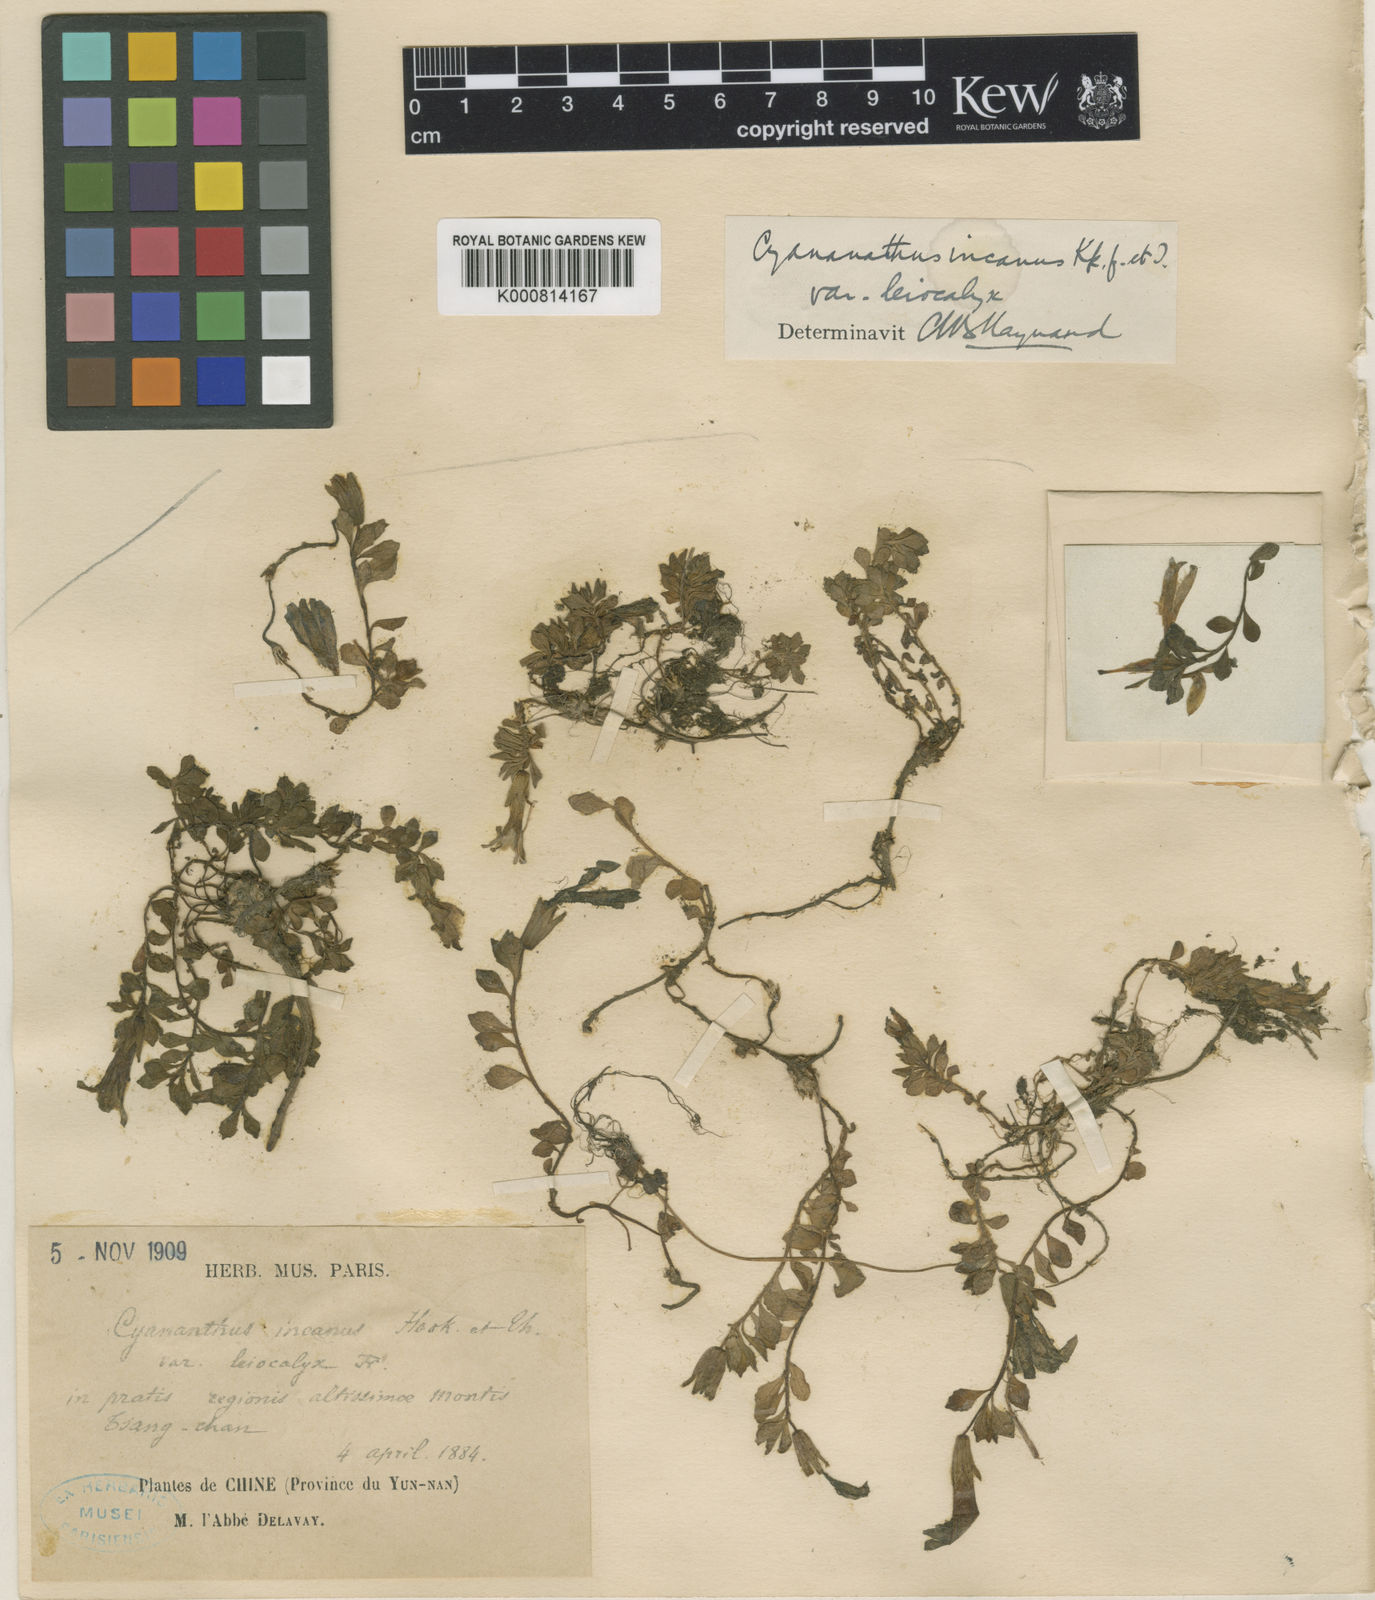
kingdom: Plantae
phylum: Tracheophyta
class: Magnoliopsida
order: Asterales
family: Campanulaceae
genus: Cyananthus
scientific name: Cyananthus macrocalyx
